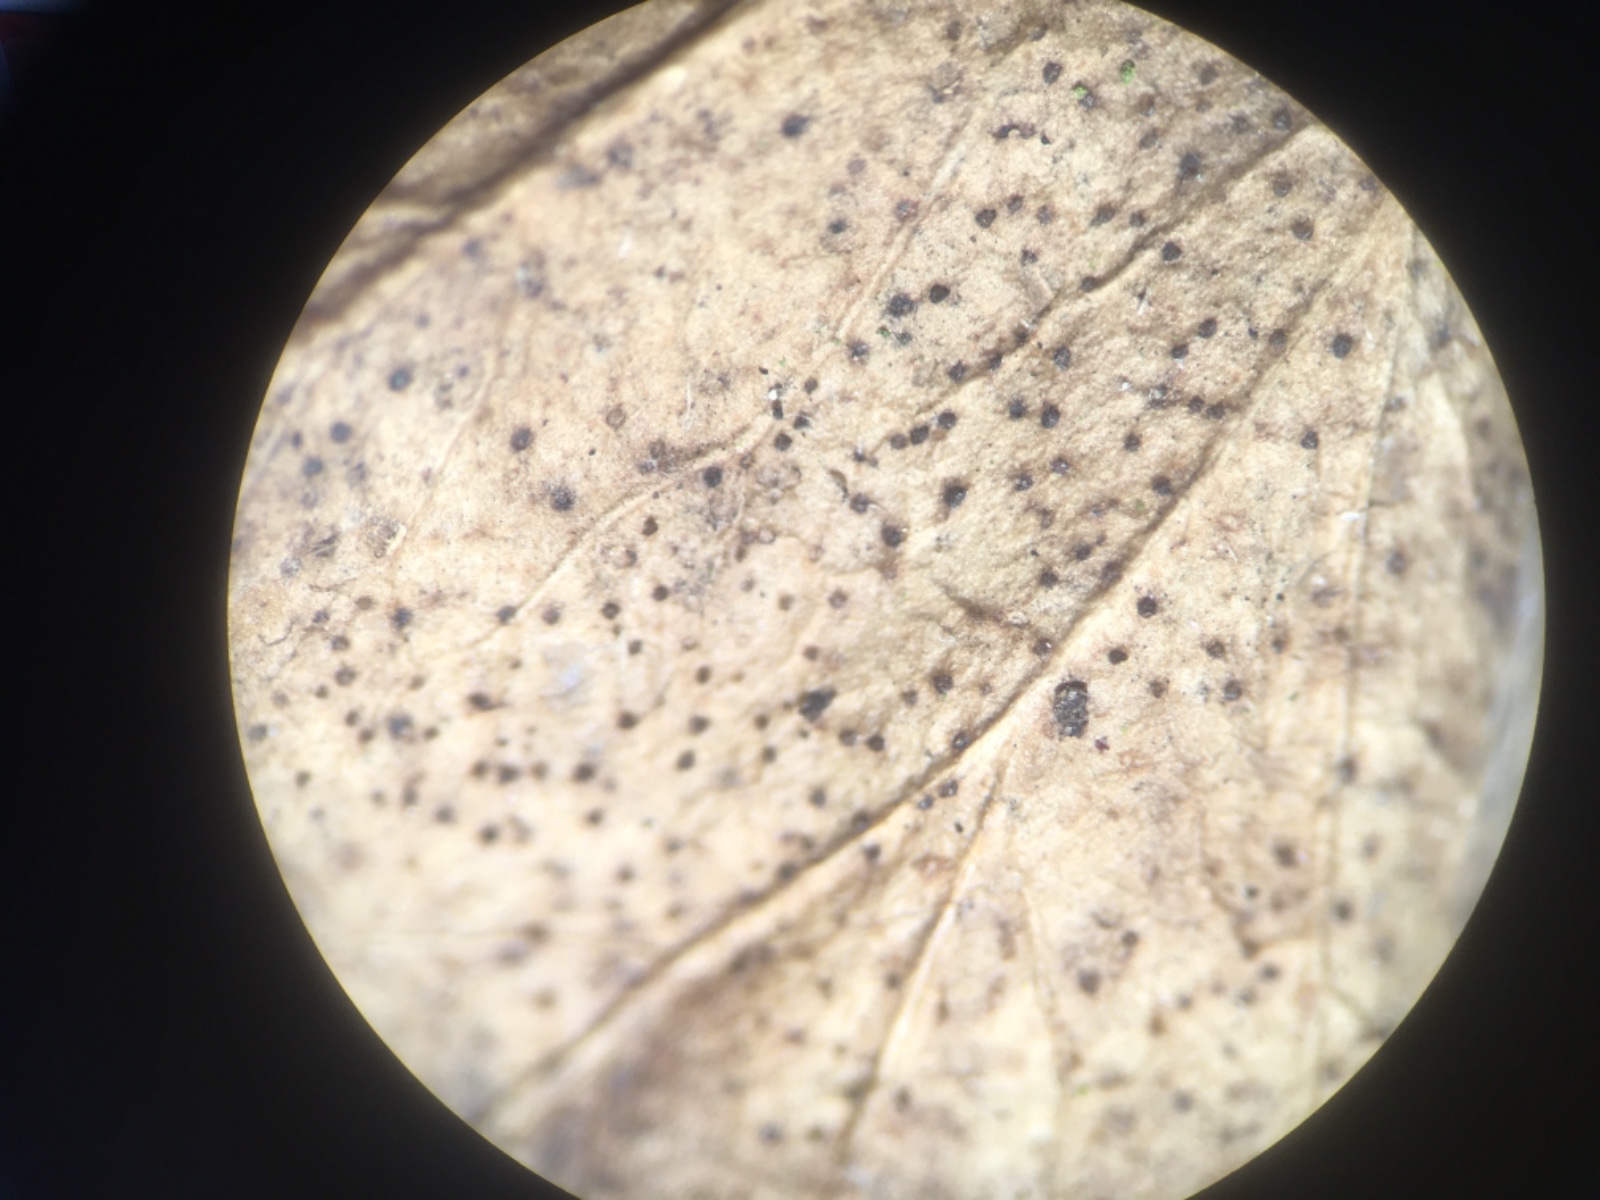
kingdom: Fungi
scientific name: Fungi
